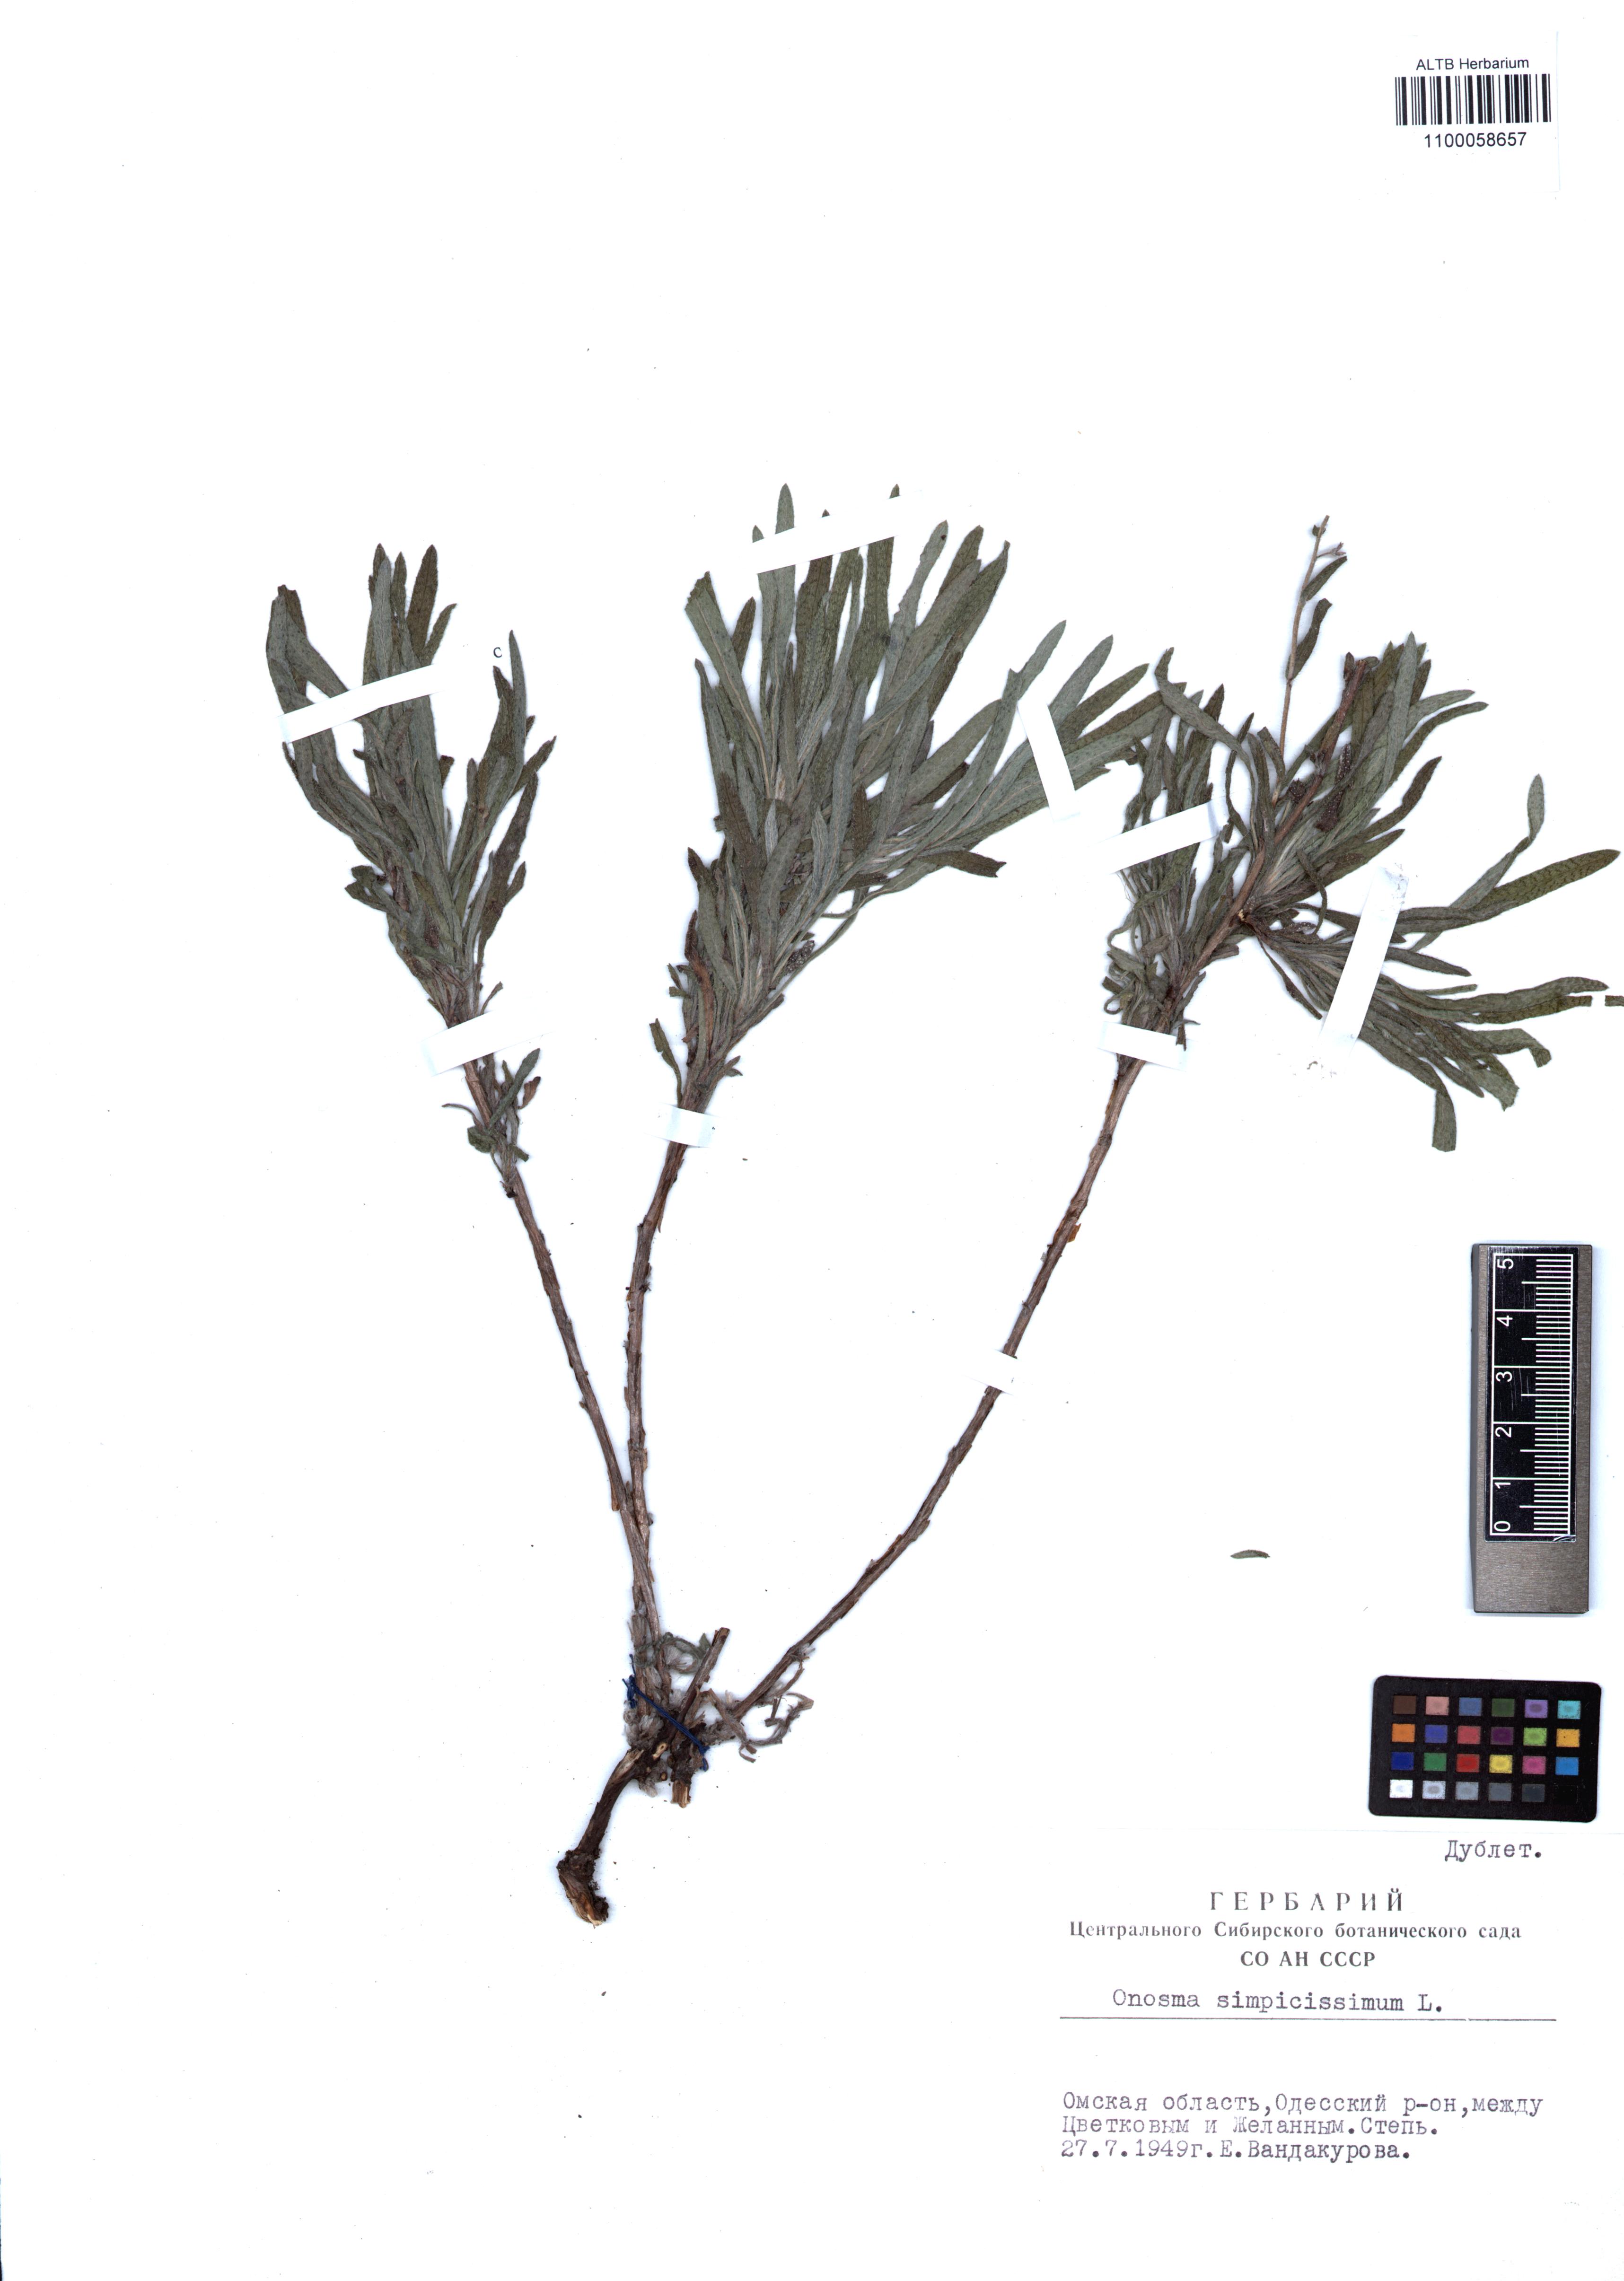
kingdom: Plantae
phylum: Tracheophyta
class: Magnoliopsida
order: Boraginales
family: Boraginaceae
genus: Onosma
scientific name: Onosma simplicissima
